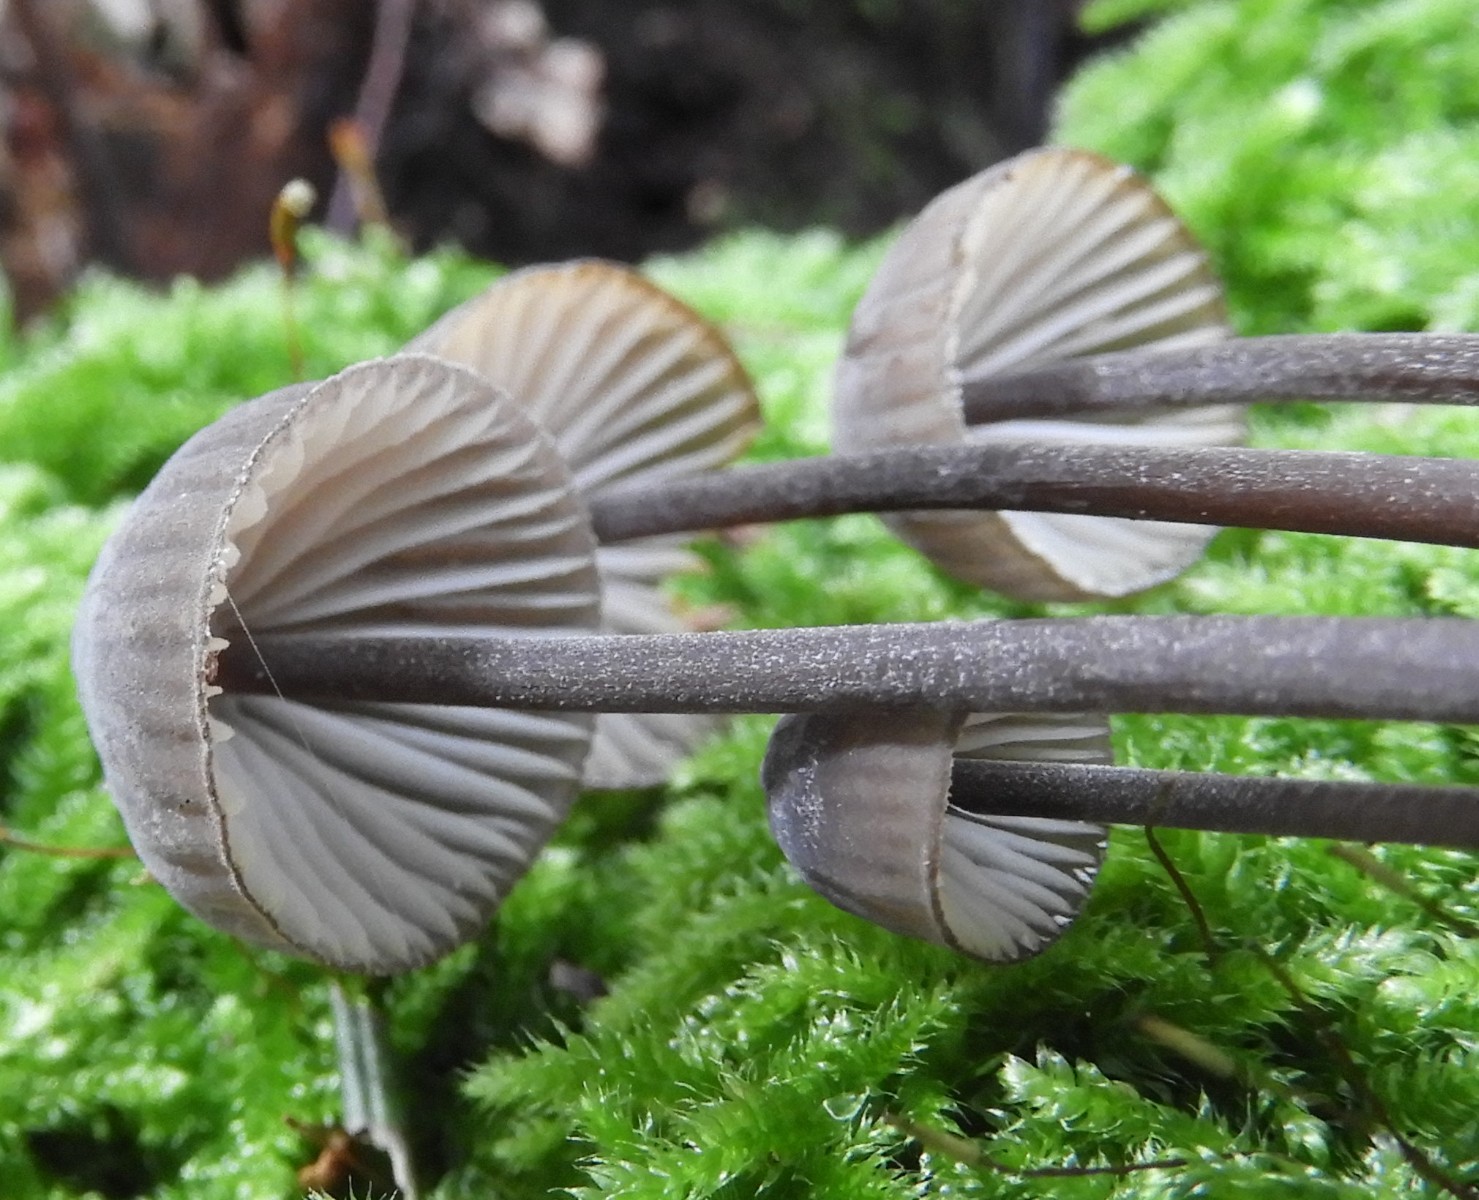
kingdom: Fungi
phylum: Basidiomycota
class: Agaricomycetes
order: Agaricales
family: Mycenaceae
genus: Mycena
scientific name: Mycena galopus
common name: hvidmælket huesvamp
